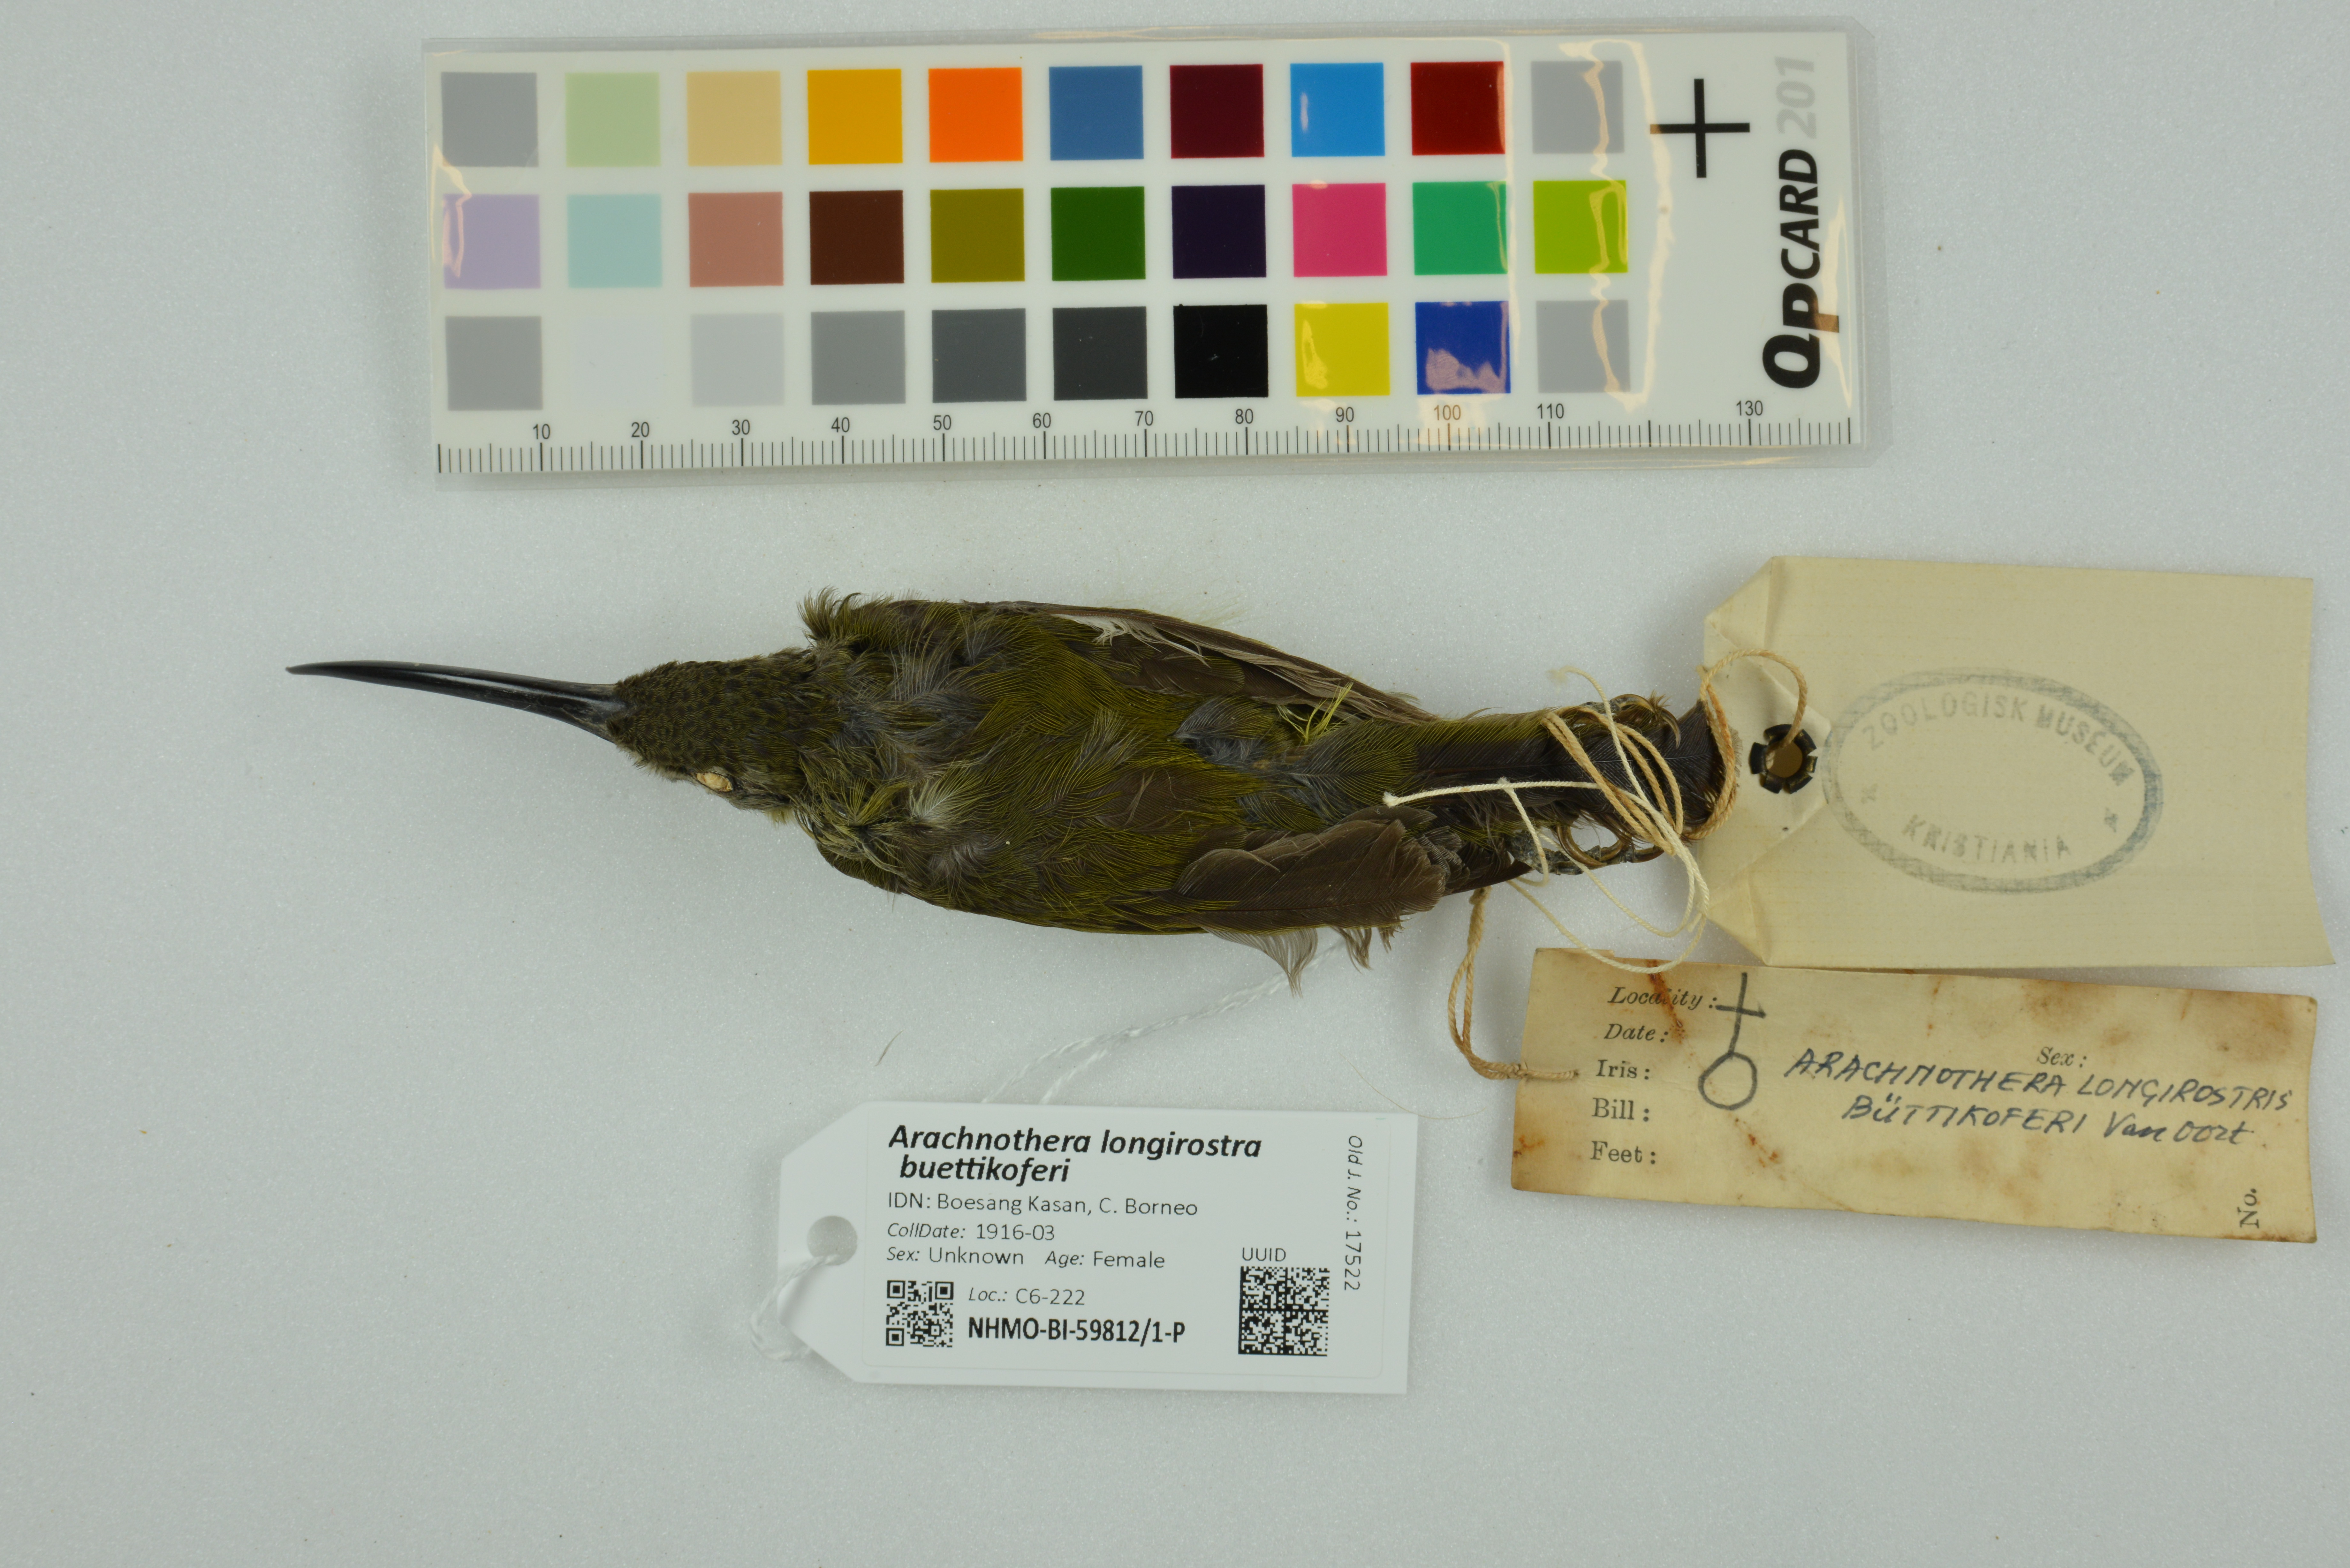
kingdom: Animalia
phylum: Chordata
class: Aves
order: Passeriformes
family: Nectariniidae
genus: Arachnothera
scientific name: Arachnothera longirostra
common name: Little spiderhunter
